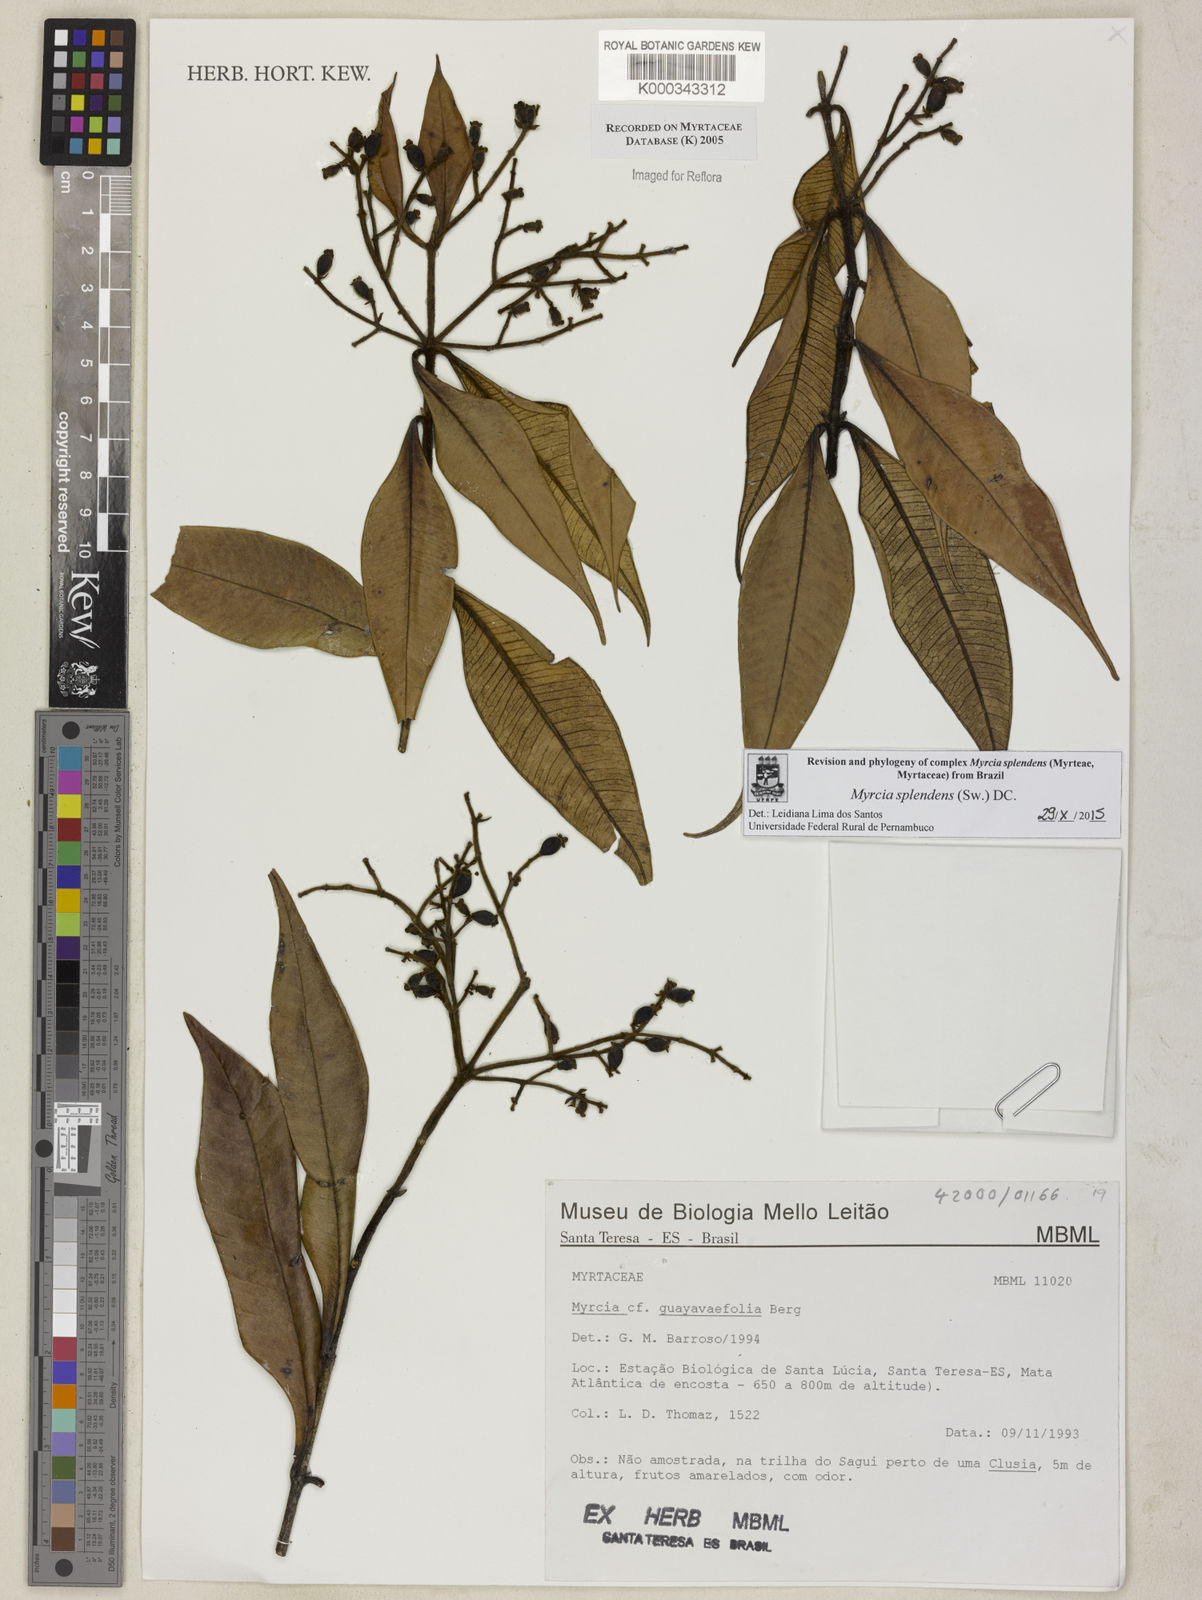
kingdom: Plantae
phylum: Tracheophyta
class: Magnoliopsida
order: Myrtales
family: Myrtaceae
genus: Myrcia
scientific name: Myrcia splendens
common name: Surinam cherry
